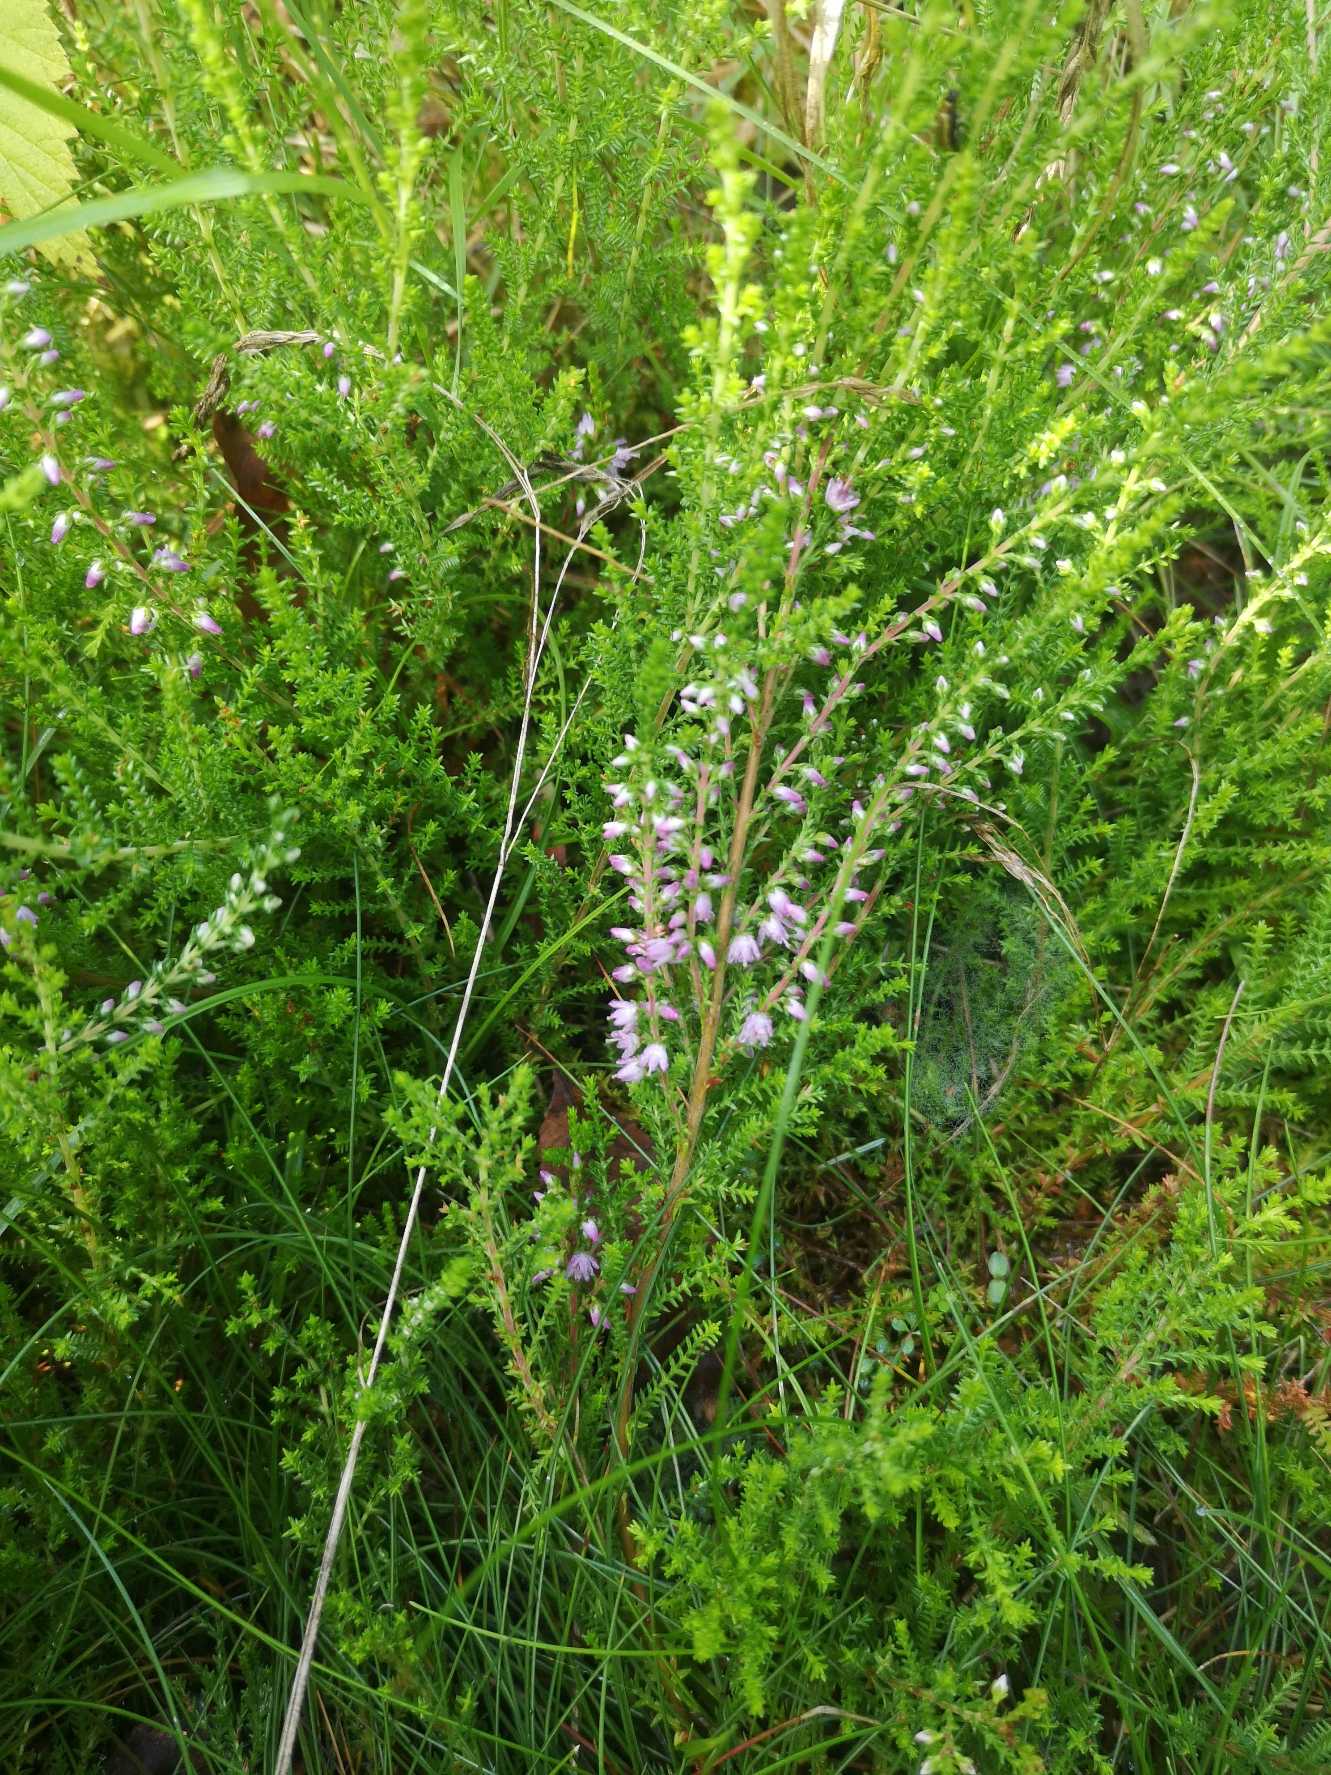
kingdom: Plantae
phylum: Tracheophyta
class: Magnoliopsida
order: Ericales
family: Ericaceae
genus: Calluna
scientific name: Calluna vulgaris
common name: Hedelyng
